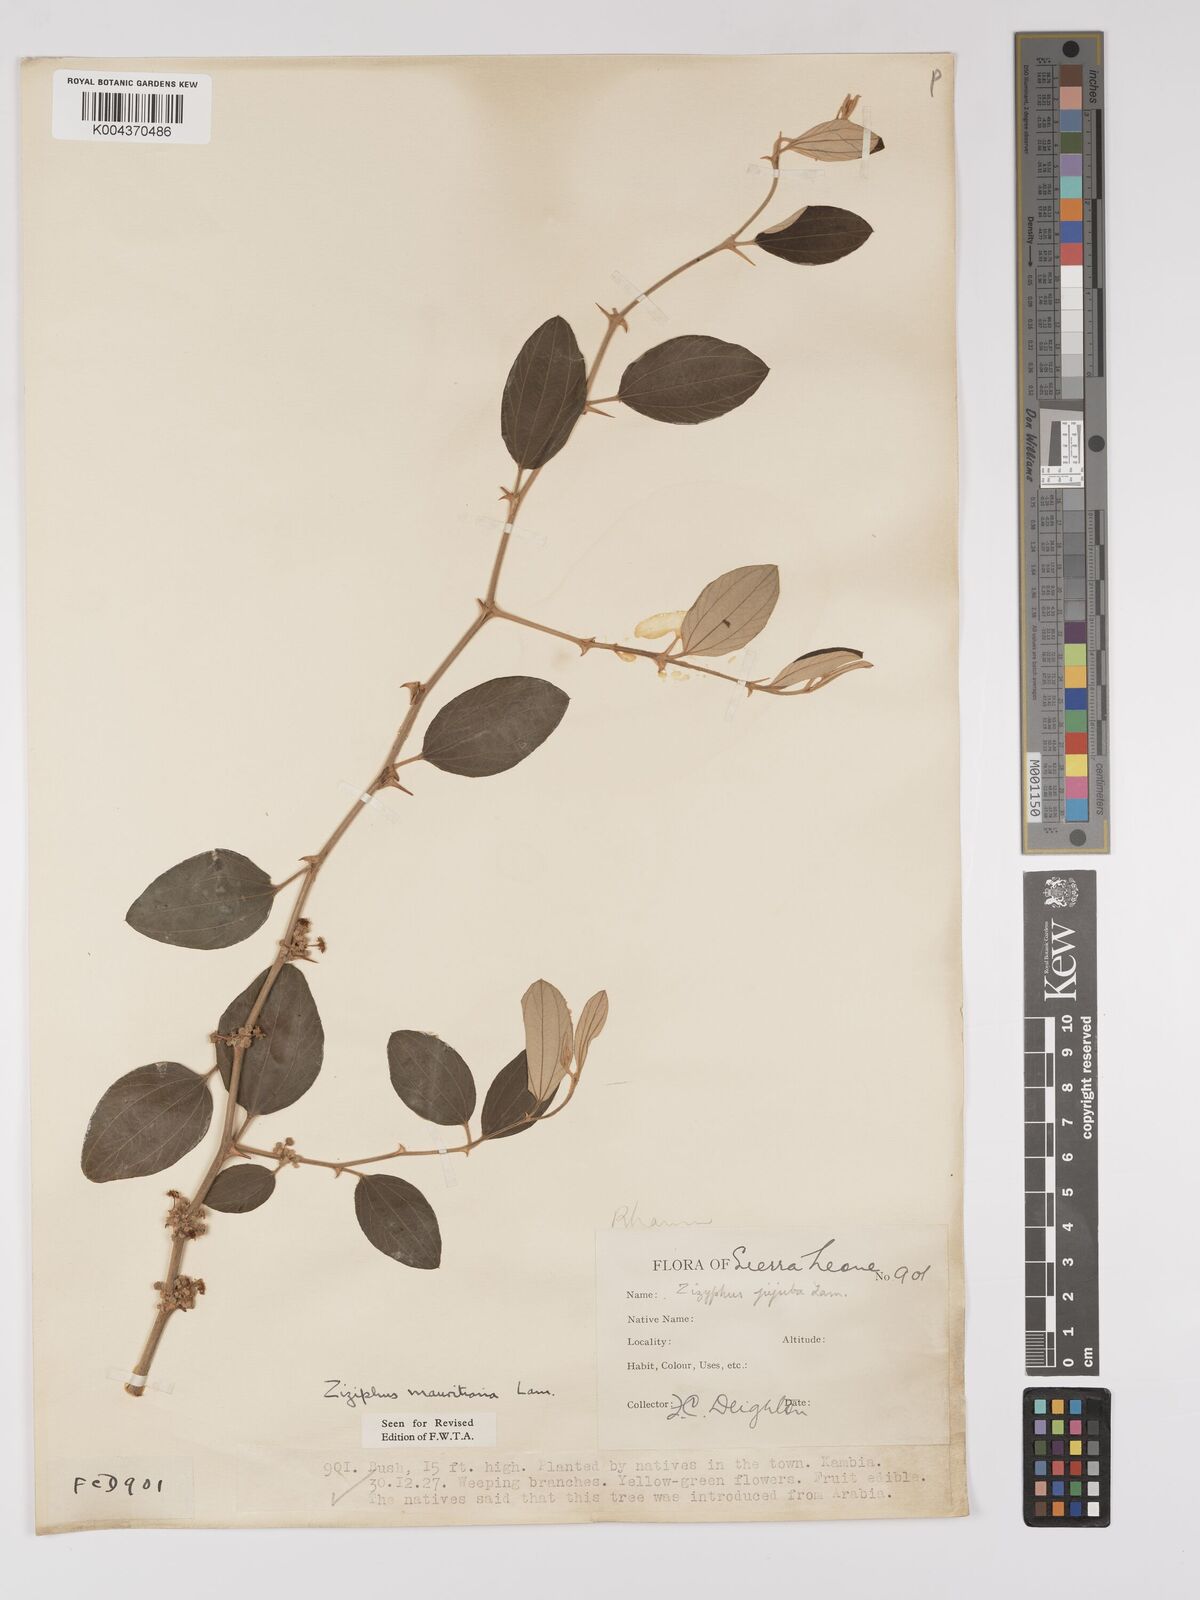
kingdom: Plantae
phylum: Tracheophyta
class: Magnoliopsida
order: Rosales
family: Rhamnaceae
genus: Ziziphus
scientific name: Ziziphus mauritiana
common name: Indian jujube
